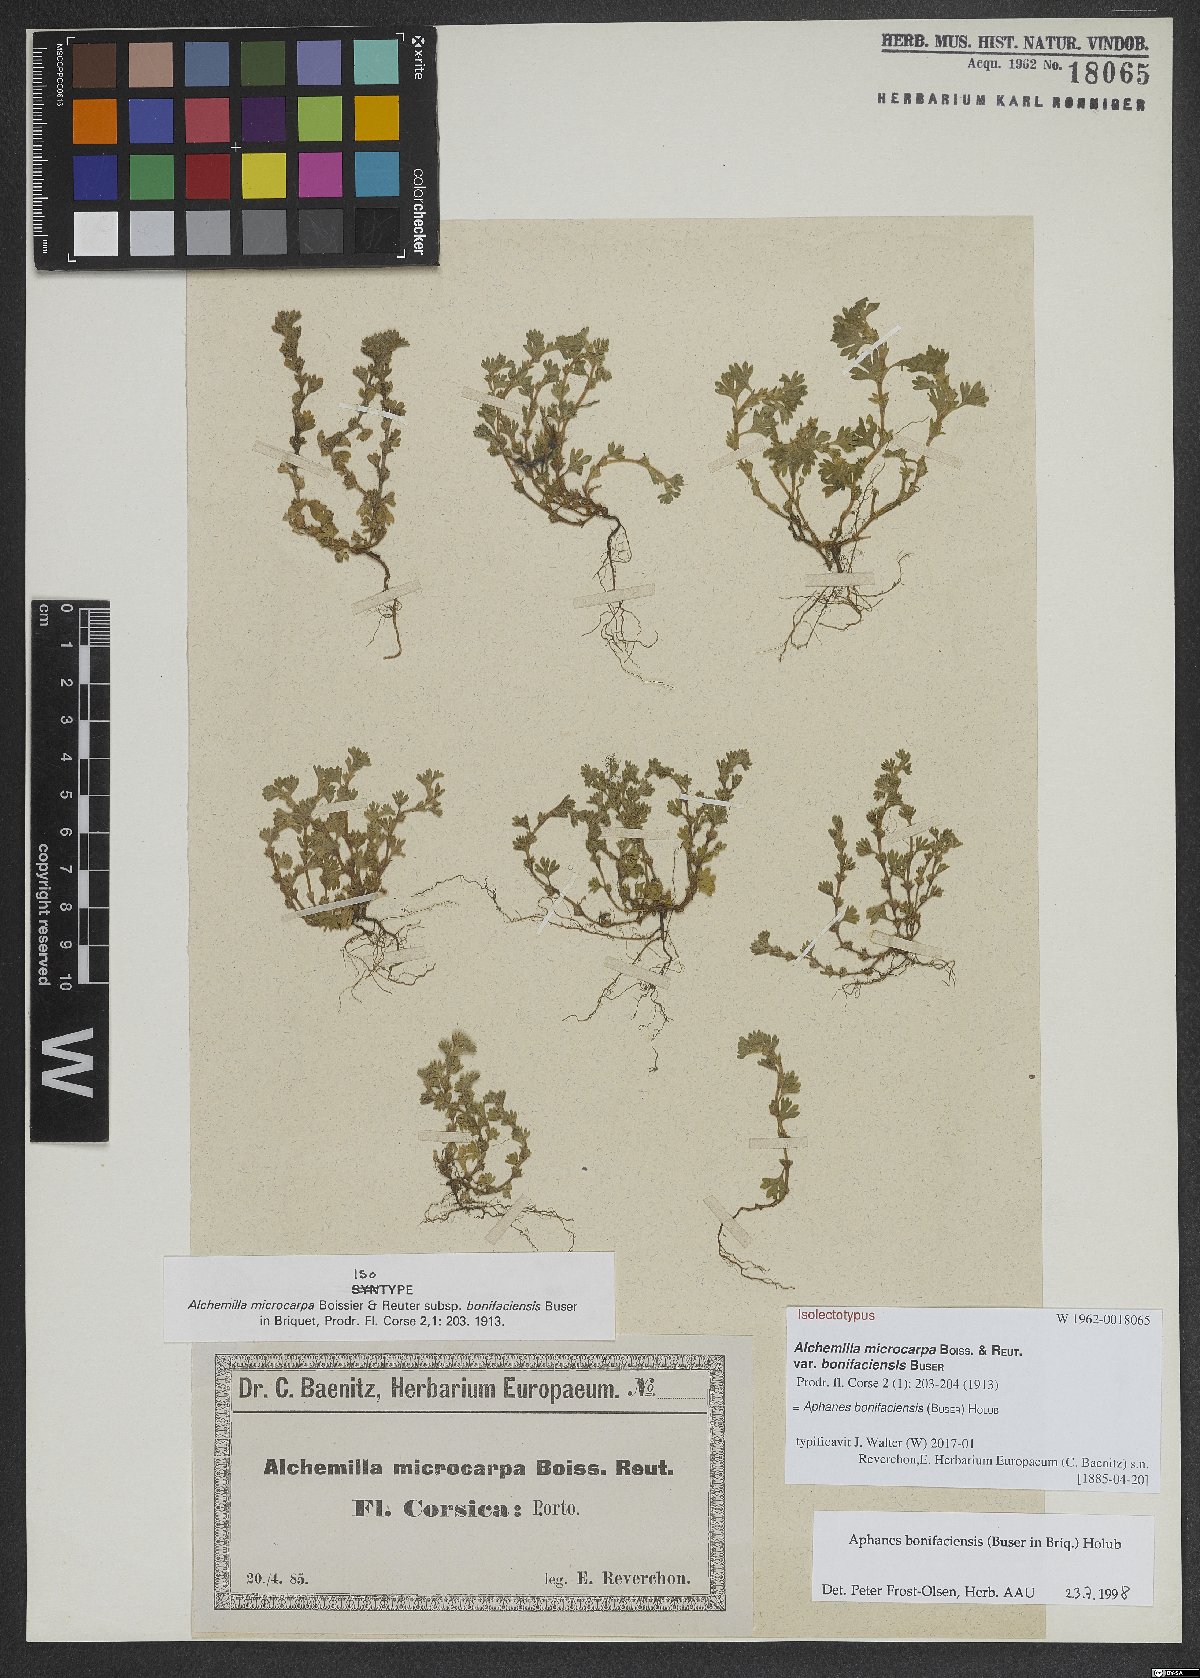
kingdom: Plantae
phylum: Tracheophyta
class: Magnoliopsida
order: Rosales
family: Rosaceae
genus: Aphanes
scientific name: Aphanes minutiflora
